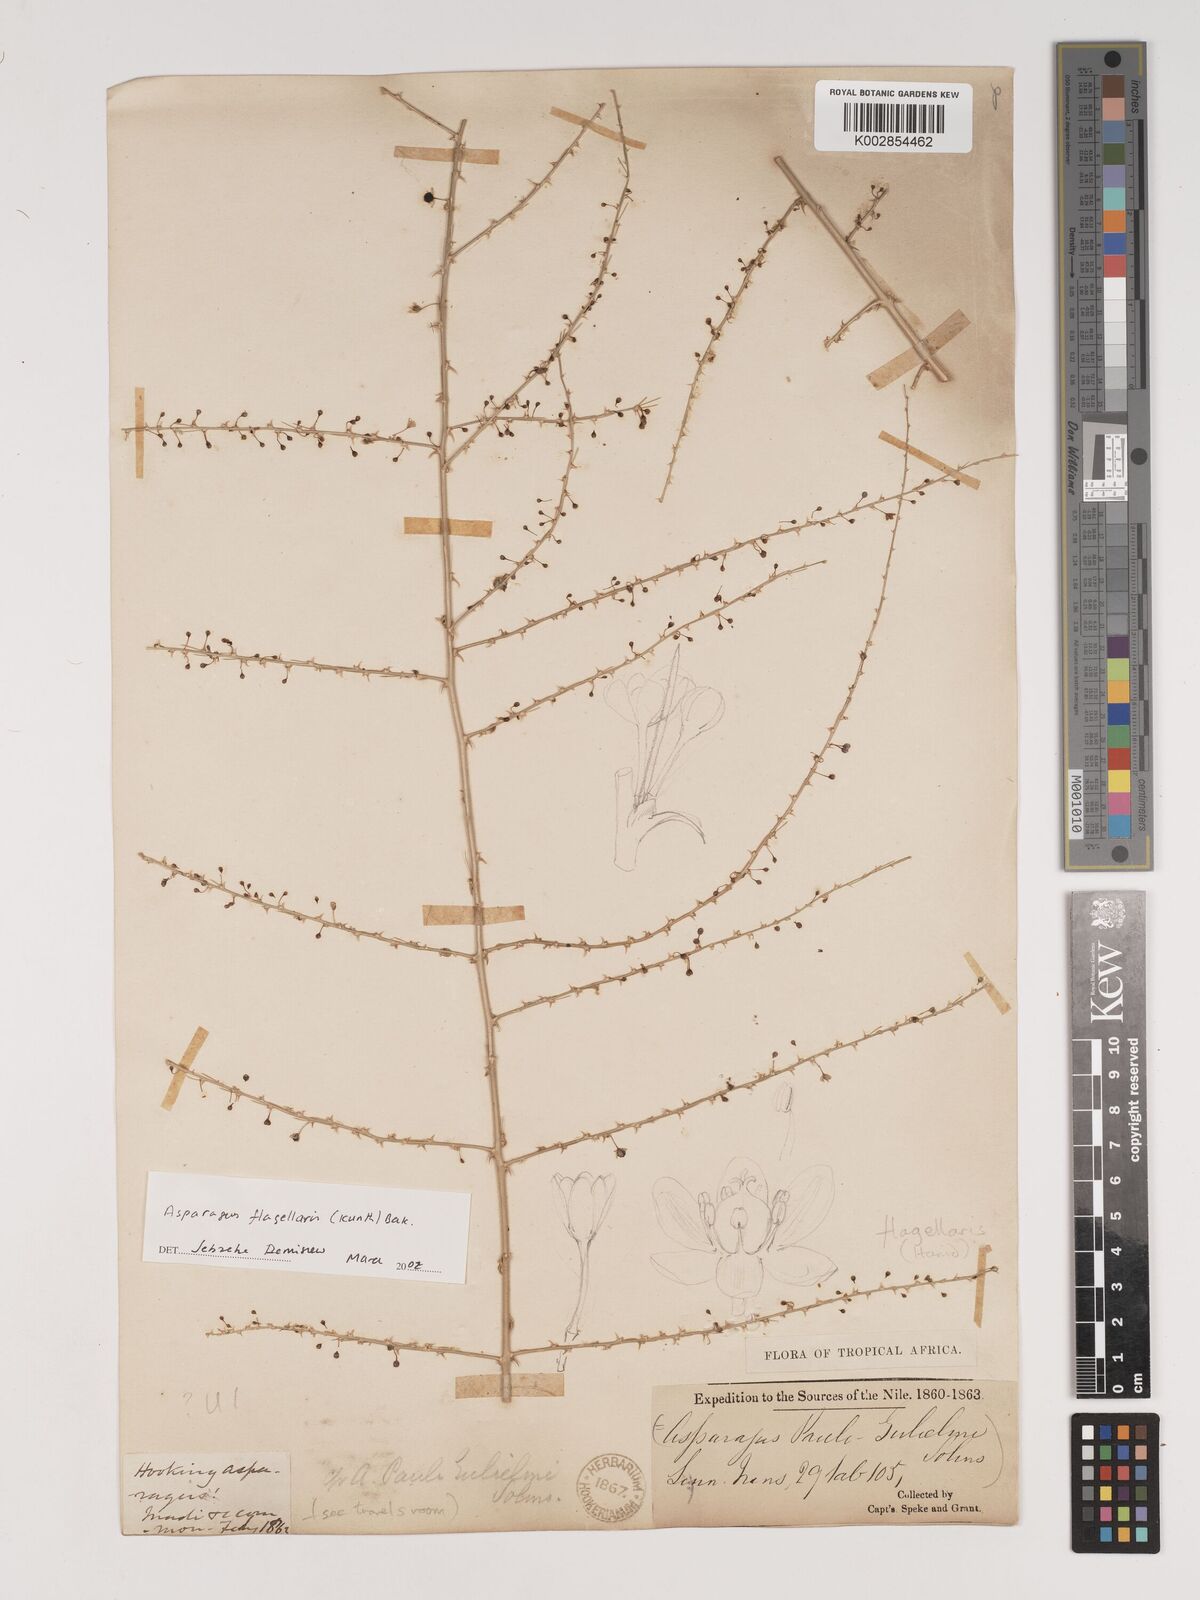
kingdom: Plantae
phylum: Tracheophyta
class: Liliopsida
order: Asparagales
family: Asparagaceae
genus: Asparagus
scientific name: Asparagus flagellaris
